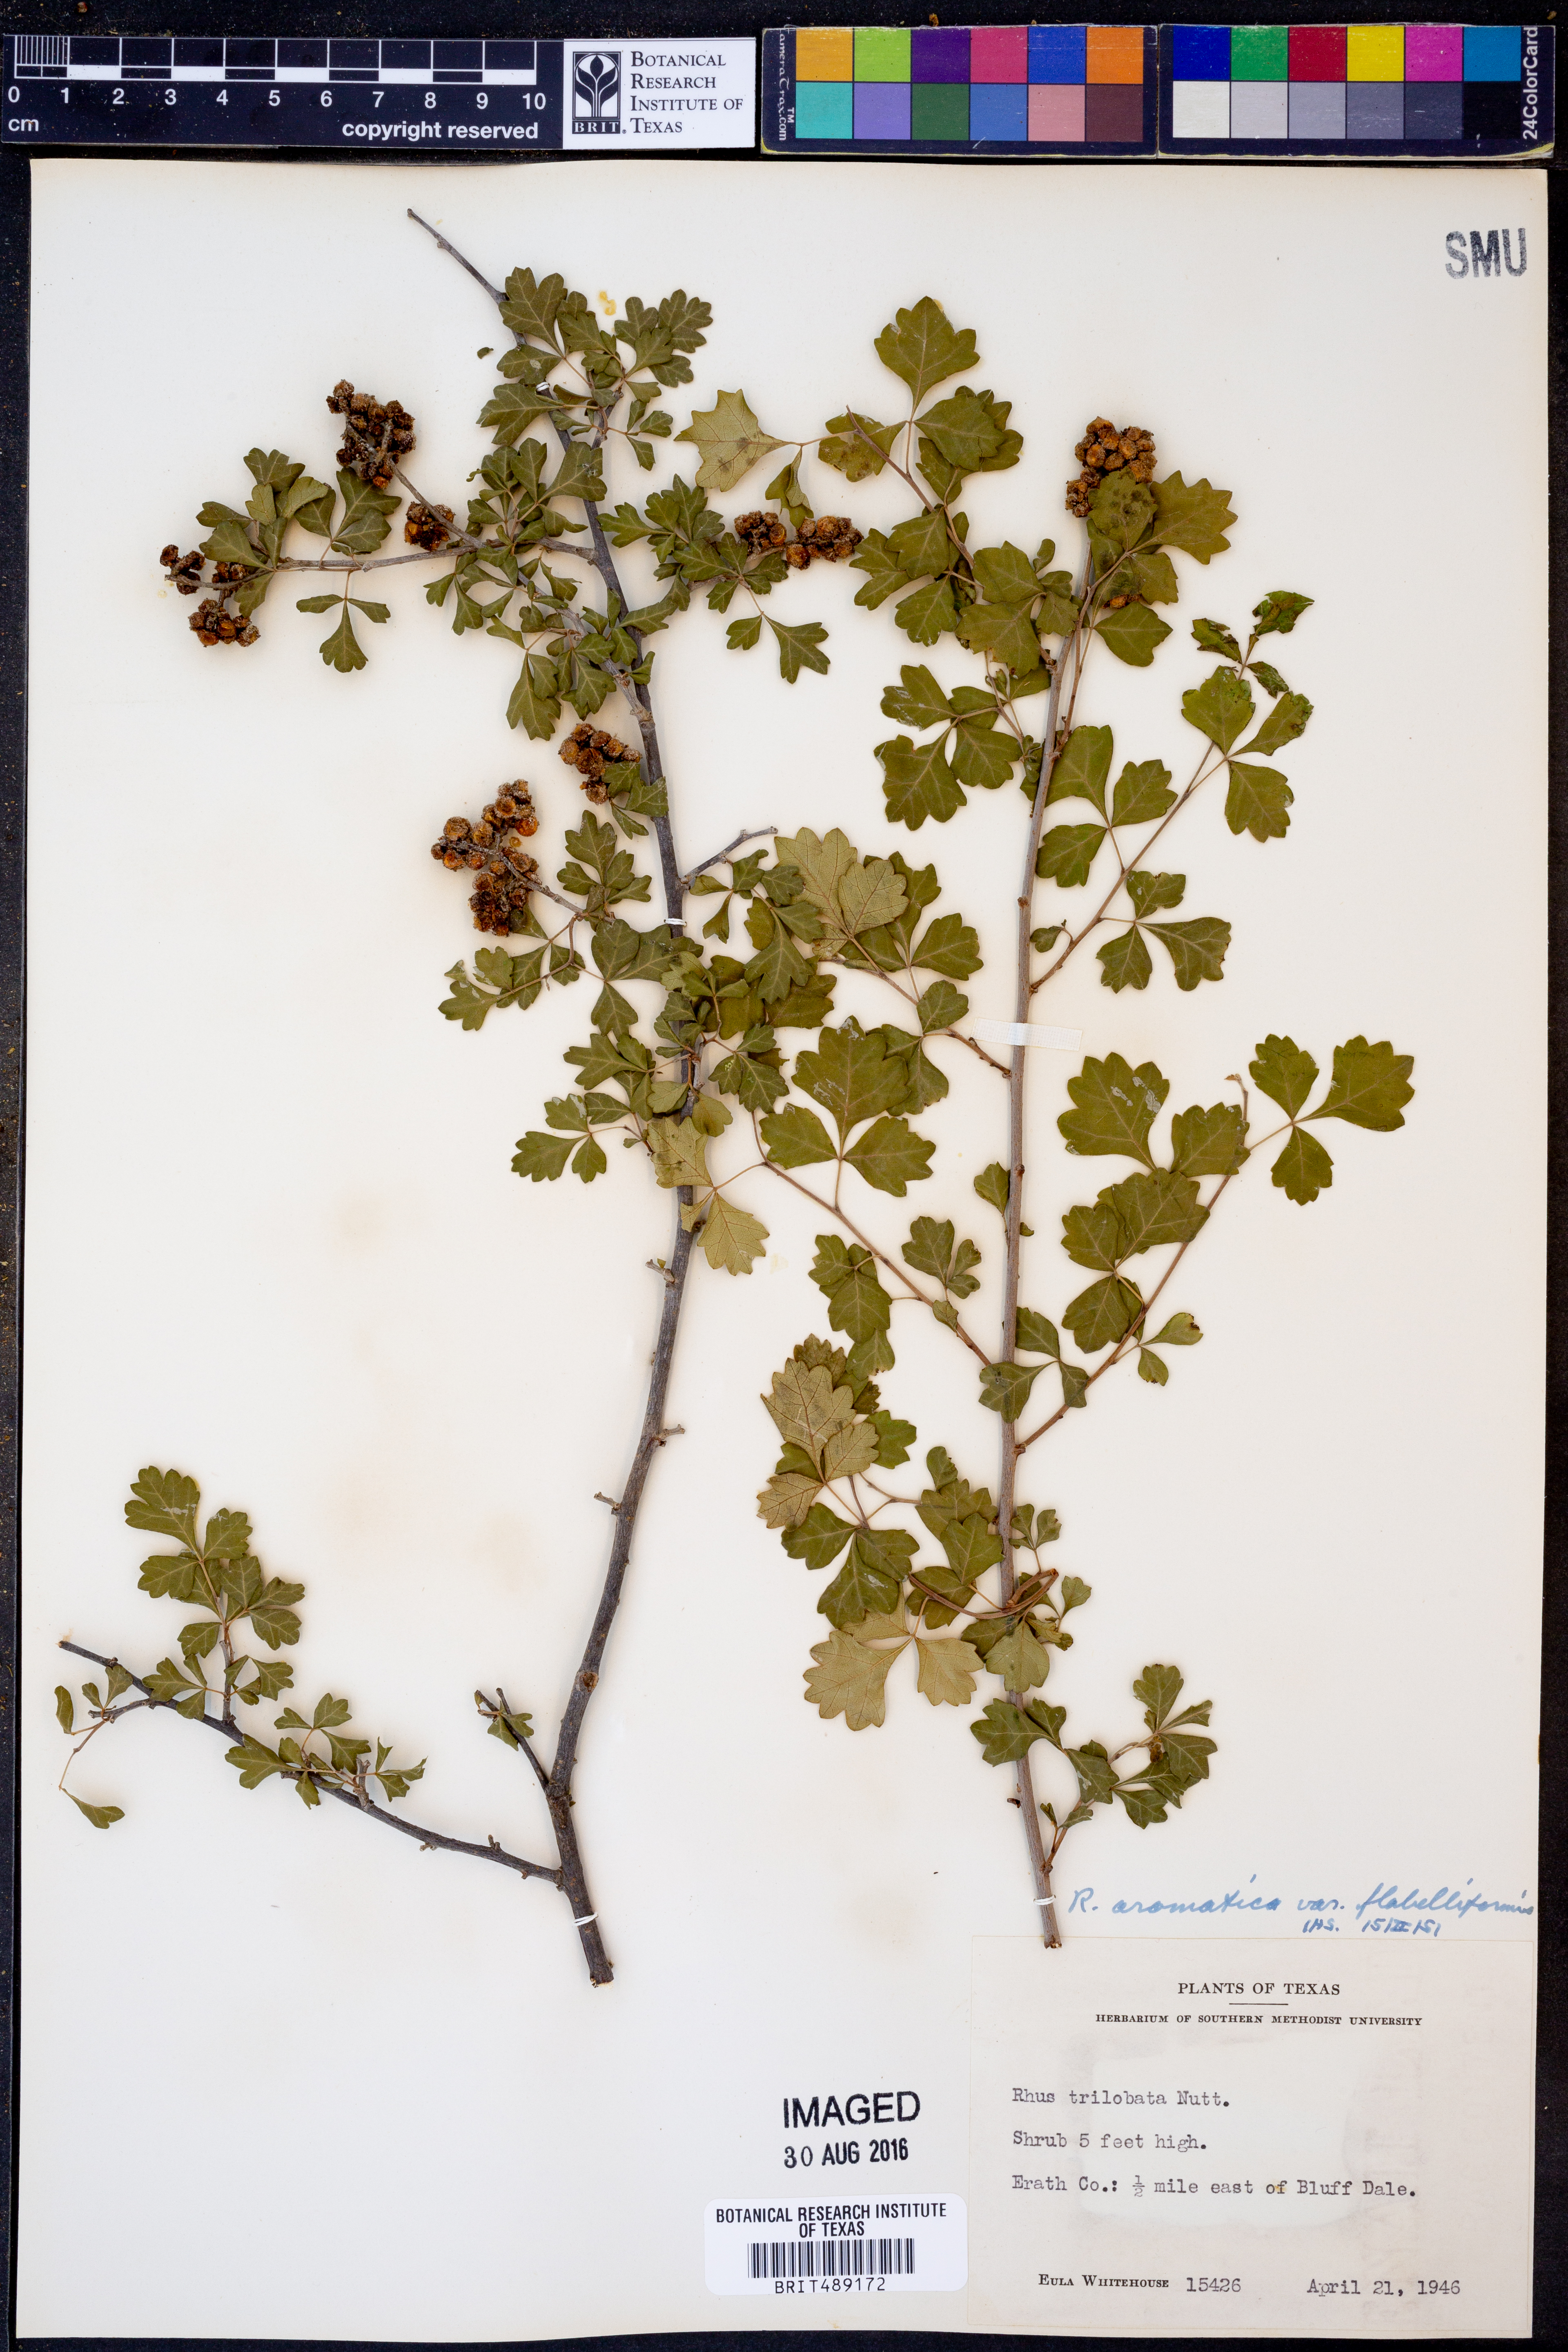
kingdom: Plantae
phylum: Tracheophyta
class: Magnoliopsida
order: Sapindales
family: Anacardiaceae
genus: Rhus
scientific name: Rhus trilobata
